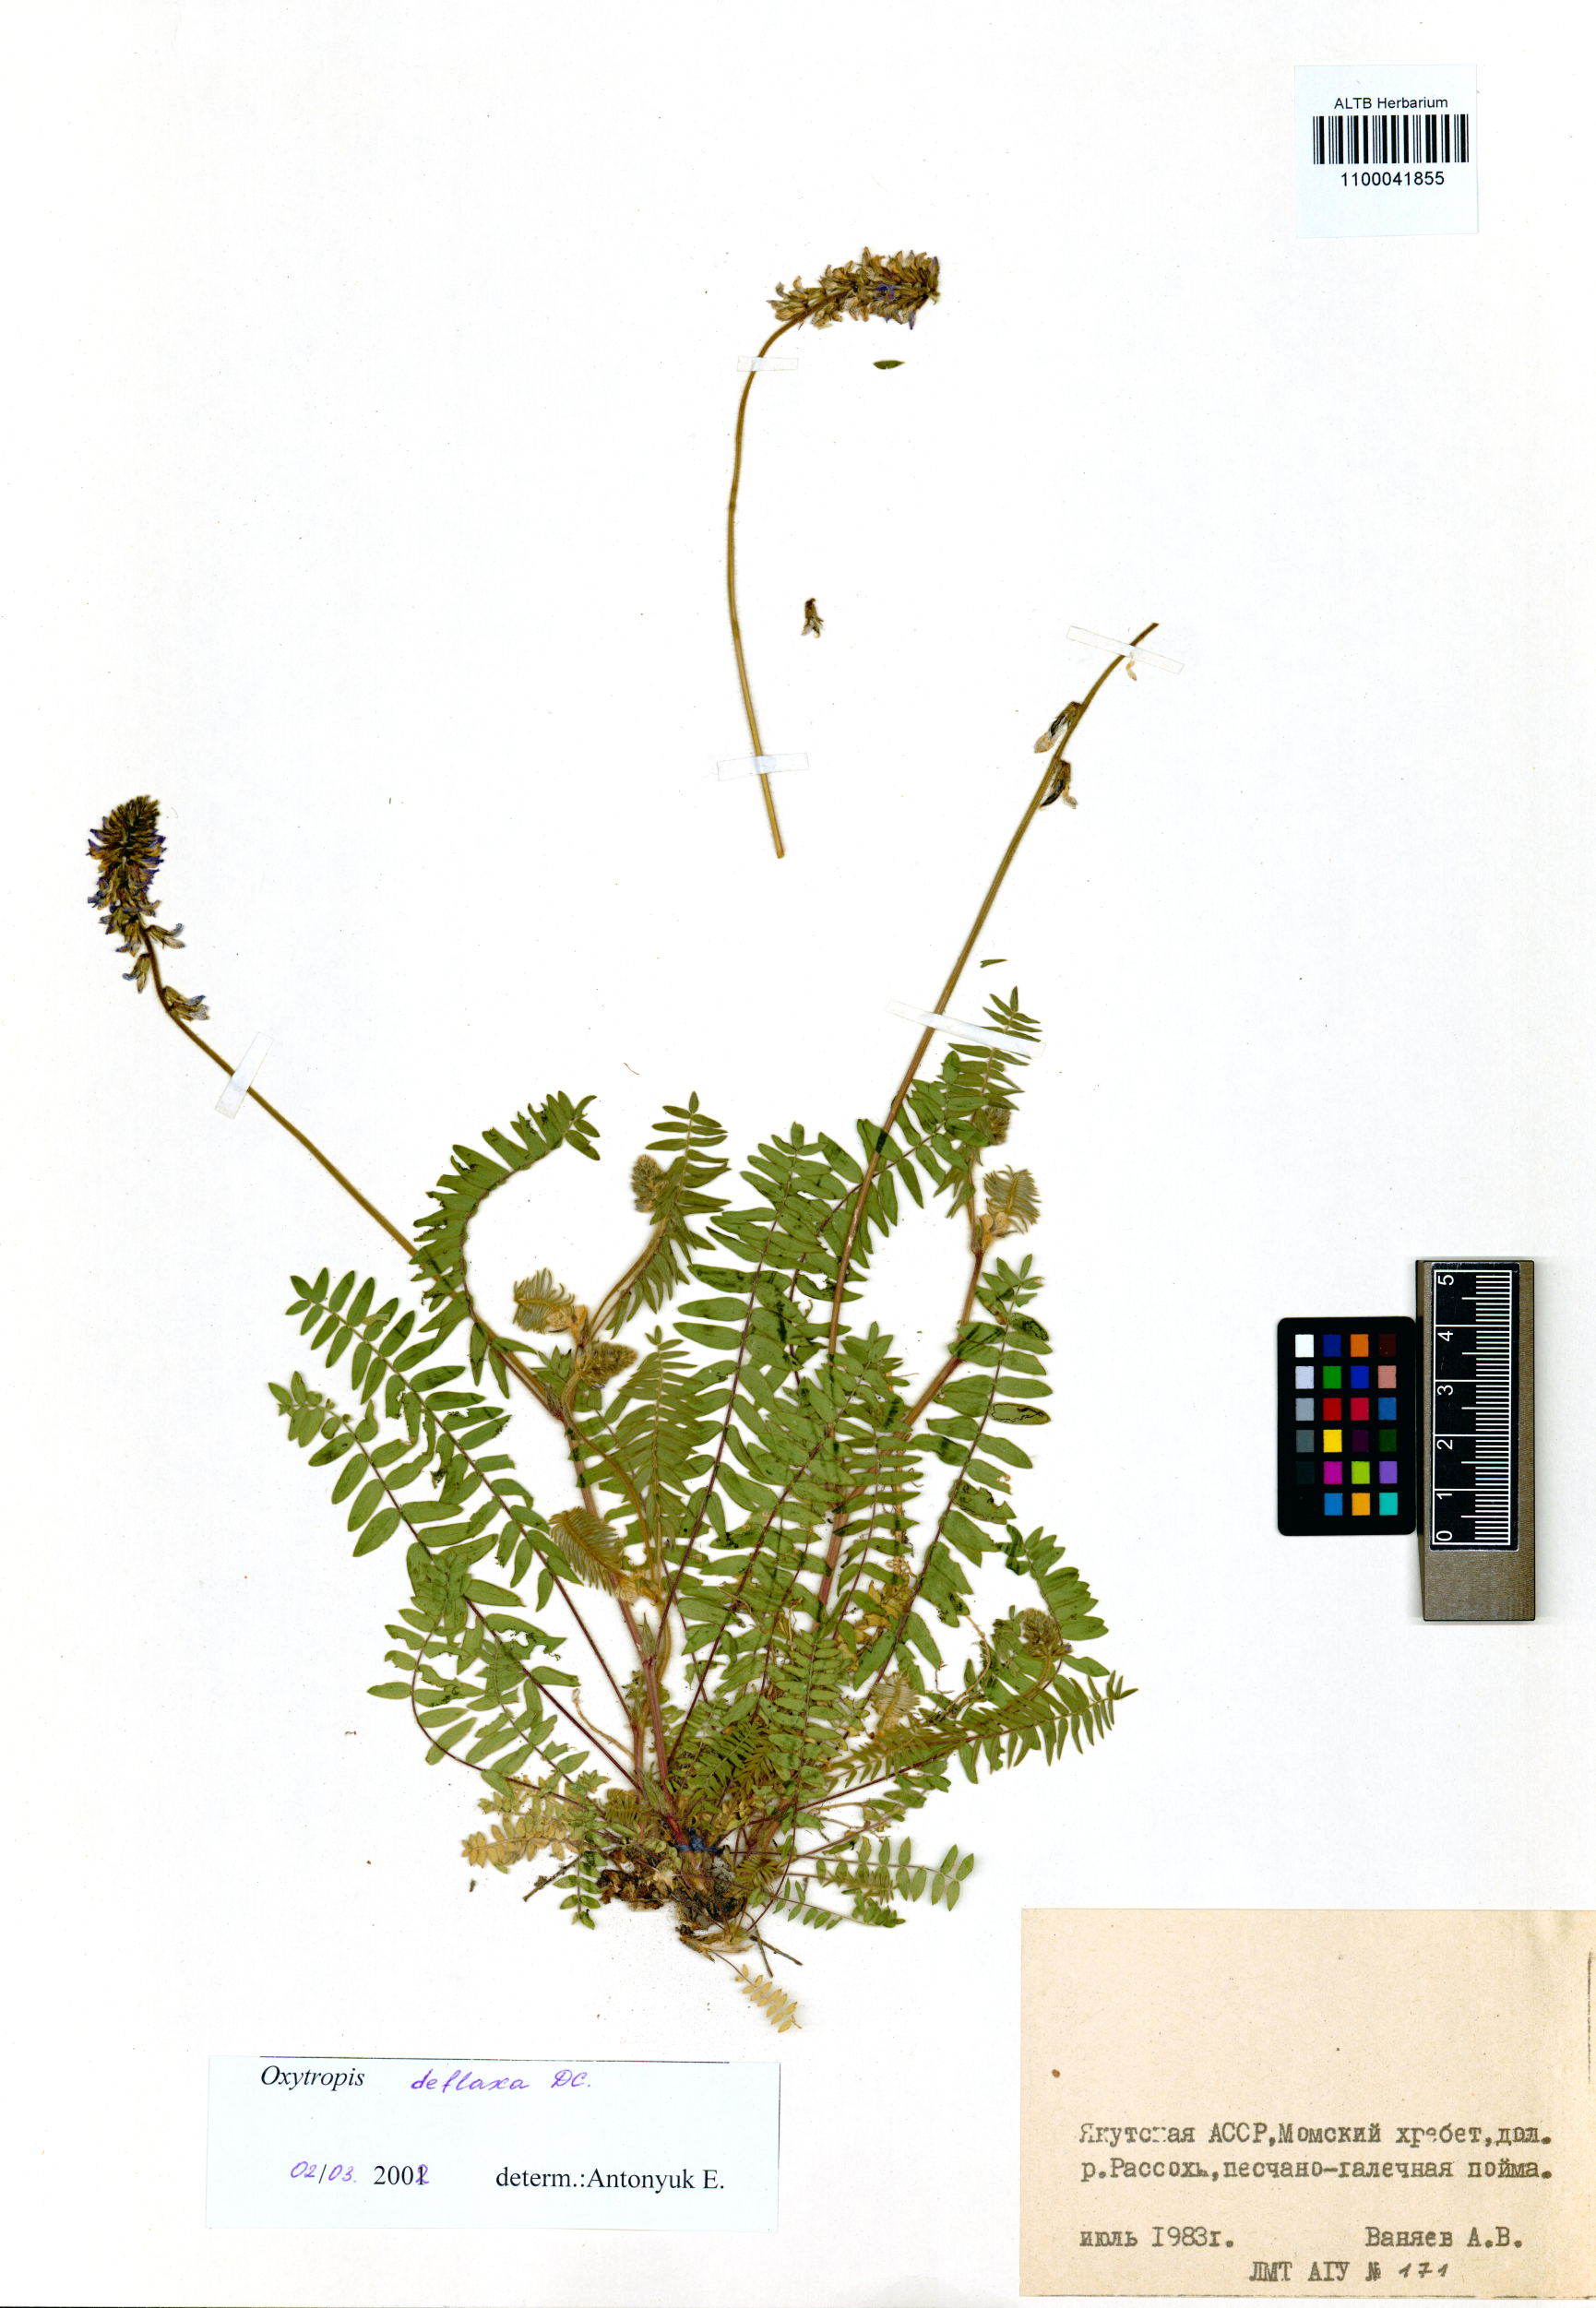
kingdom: Plantae
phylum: Tracheophyta
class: Magnoliopsida
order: Fabales
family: Fabaceae
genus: Oxytropis
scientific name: Oxytropis deflexa
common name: Stemmed oxytrope
